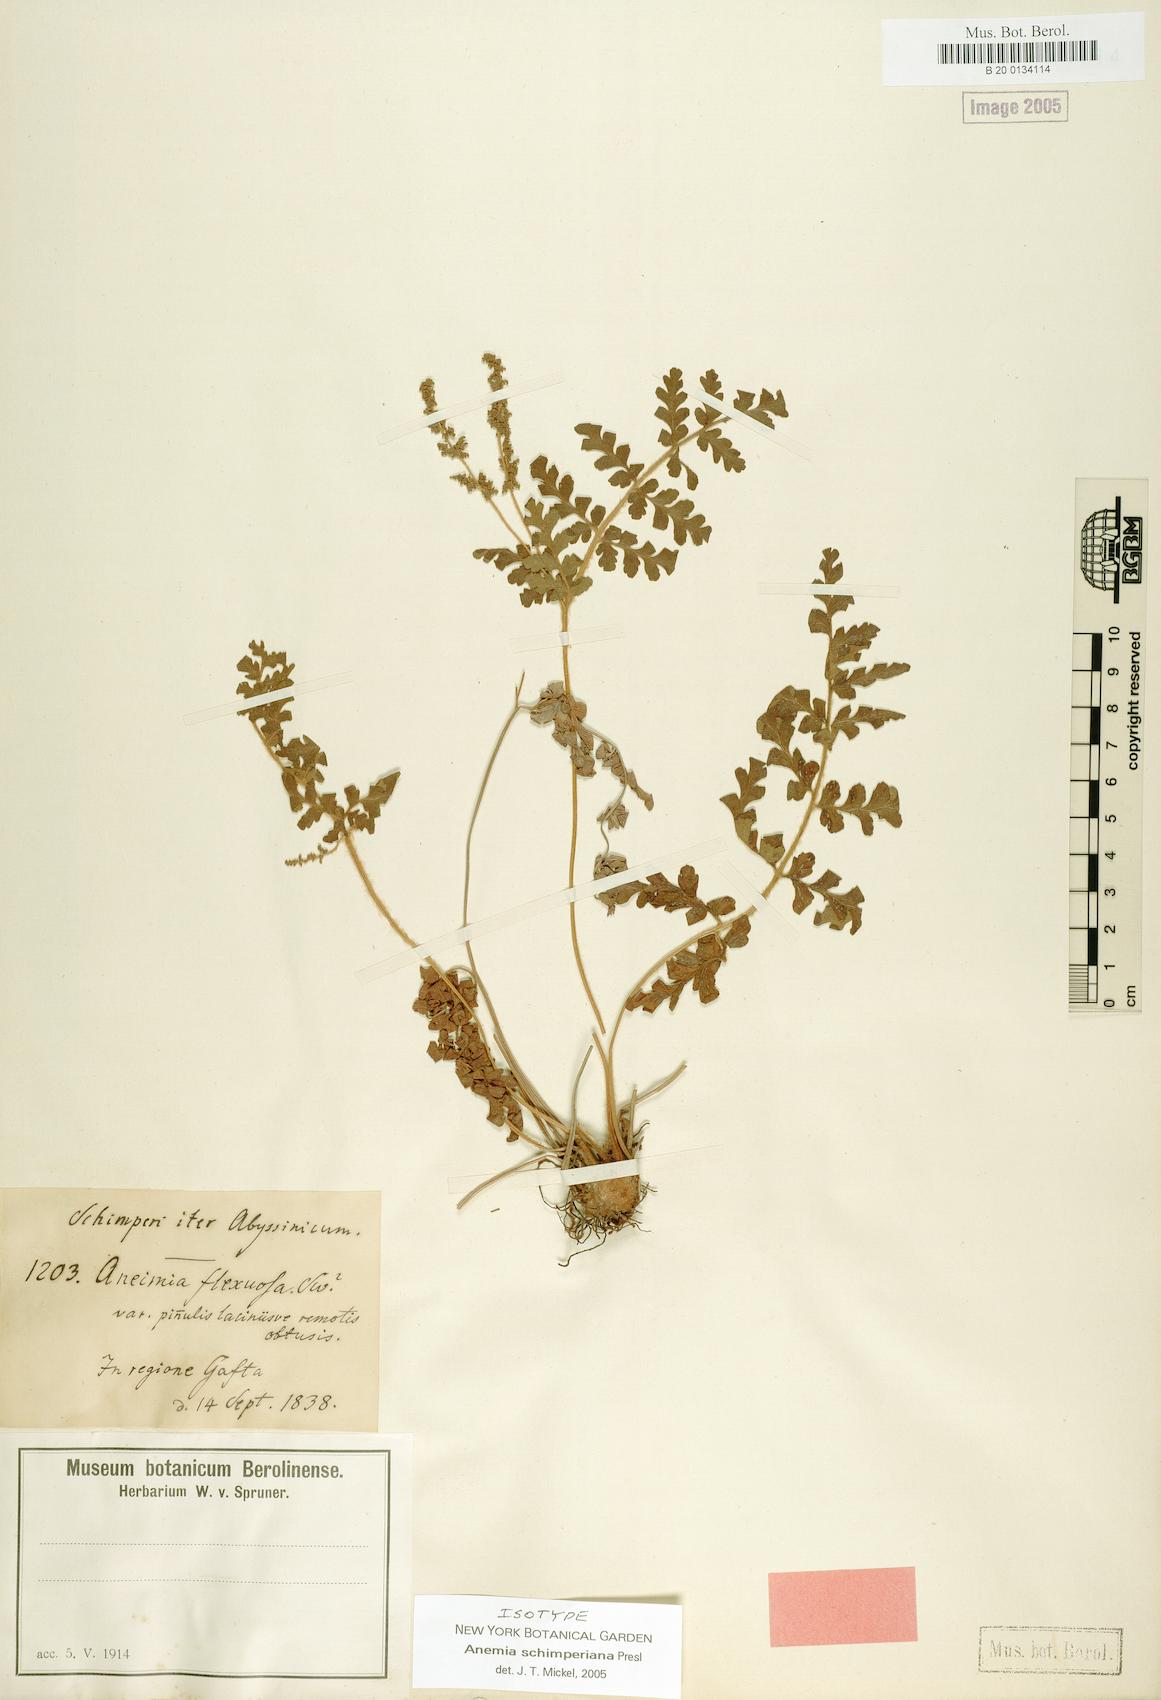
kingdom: Plantae
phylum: Tracheophyta
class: Polypodiopsida
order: Schizaeales
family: Anemiaceae
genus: Anemia
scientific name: Anemia schimperiana
